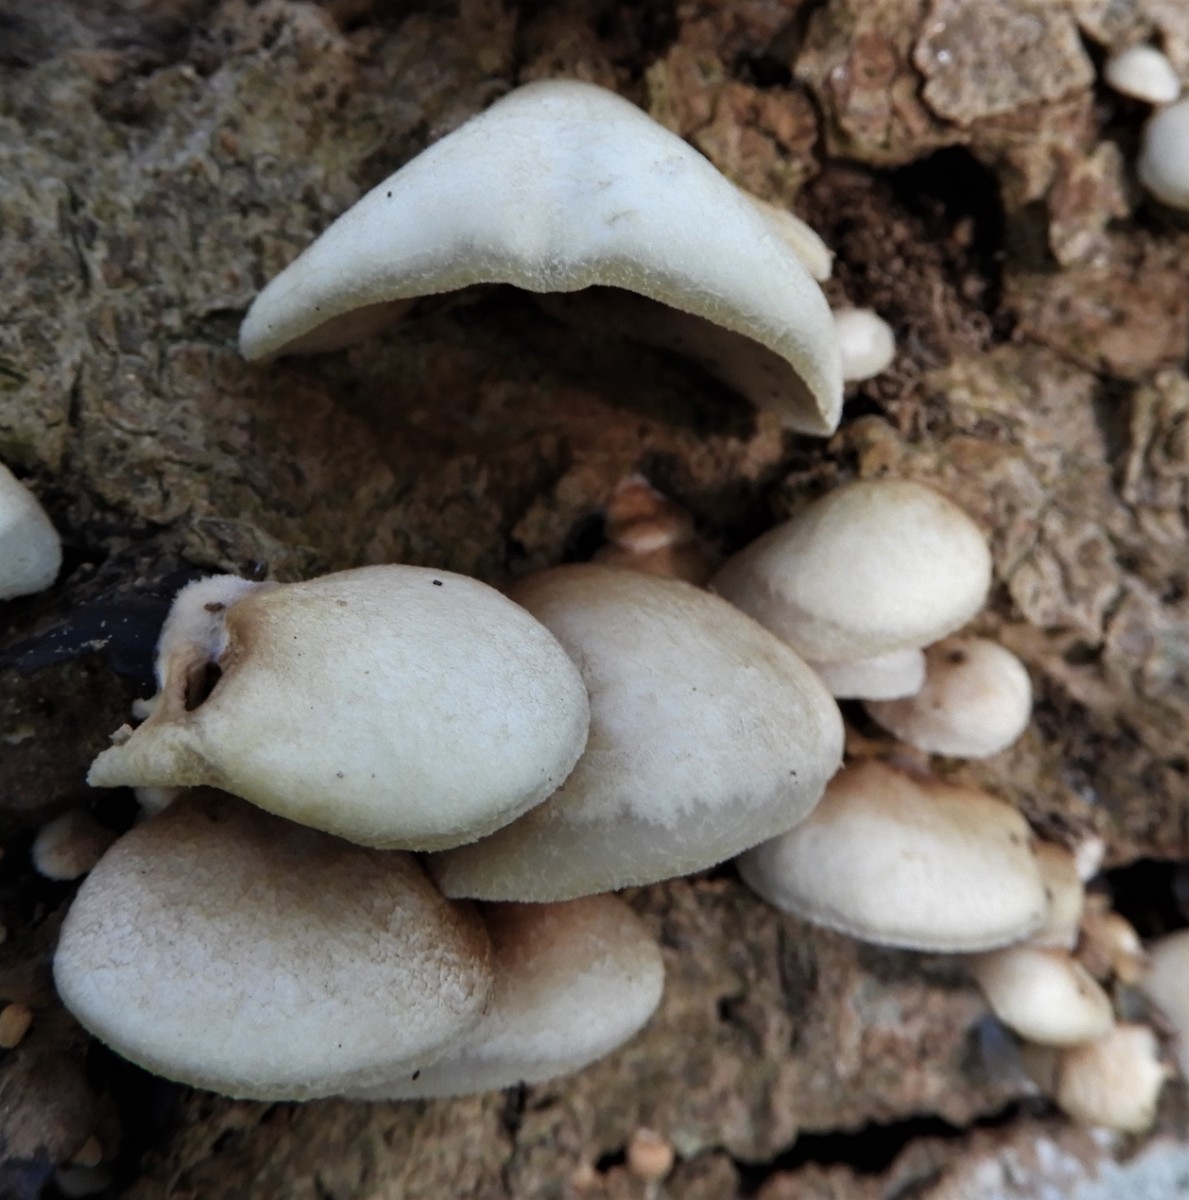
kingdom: Fungi
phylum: Basidiomycota
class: Agaricomycetes
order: Agaricales
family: Crepidotaceae
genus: Crepidotus
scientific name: Crepidotus mollis
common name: blød muslingesvamp
